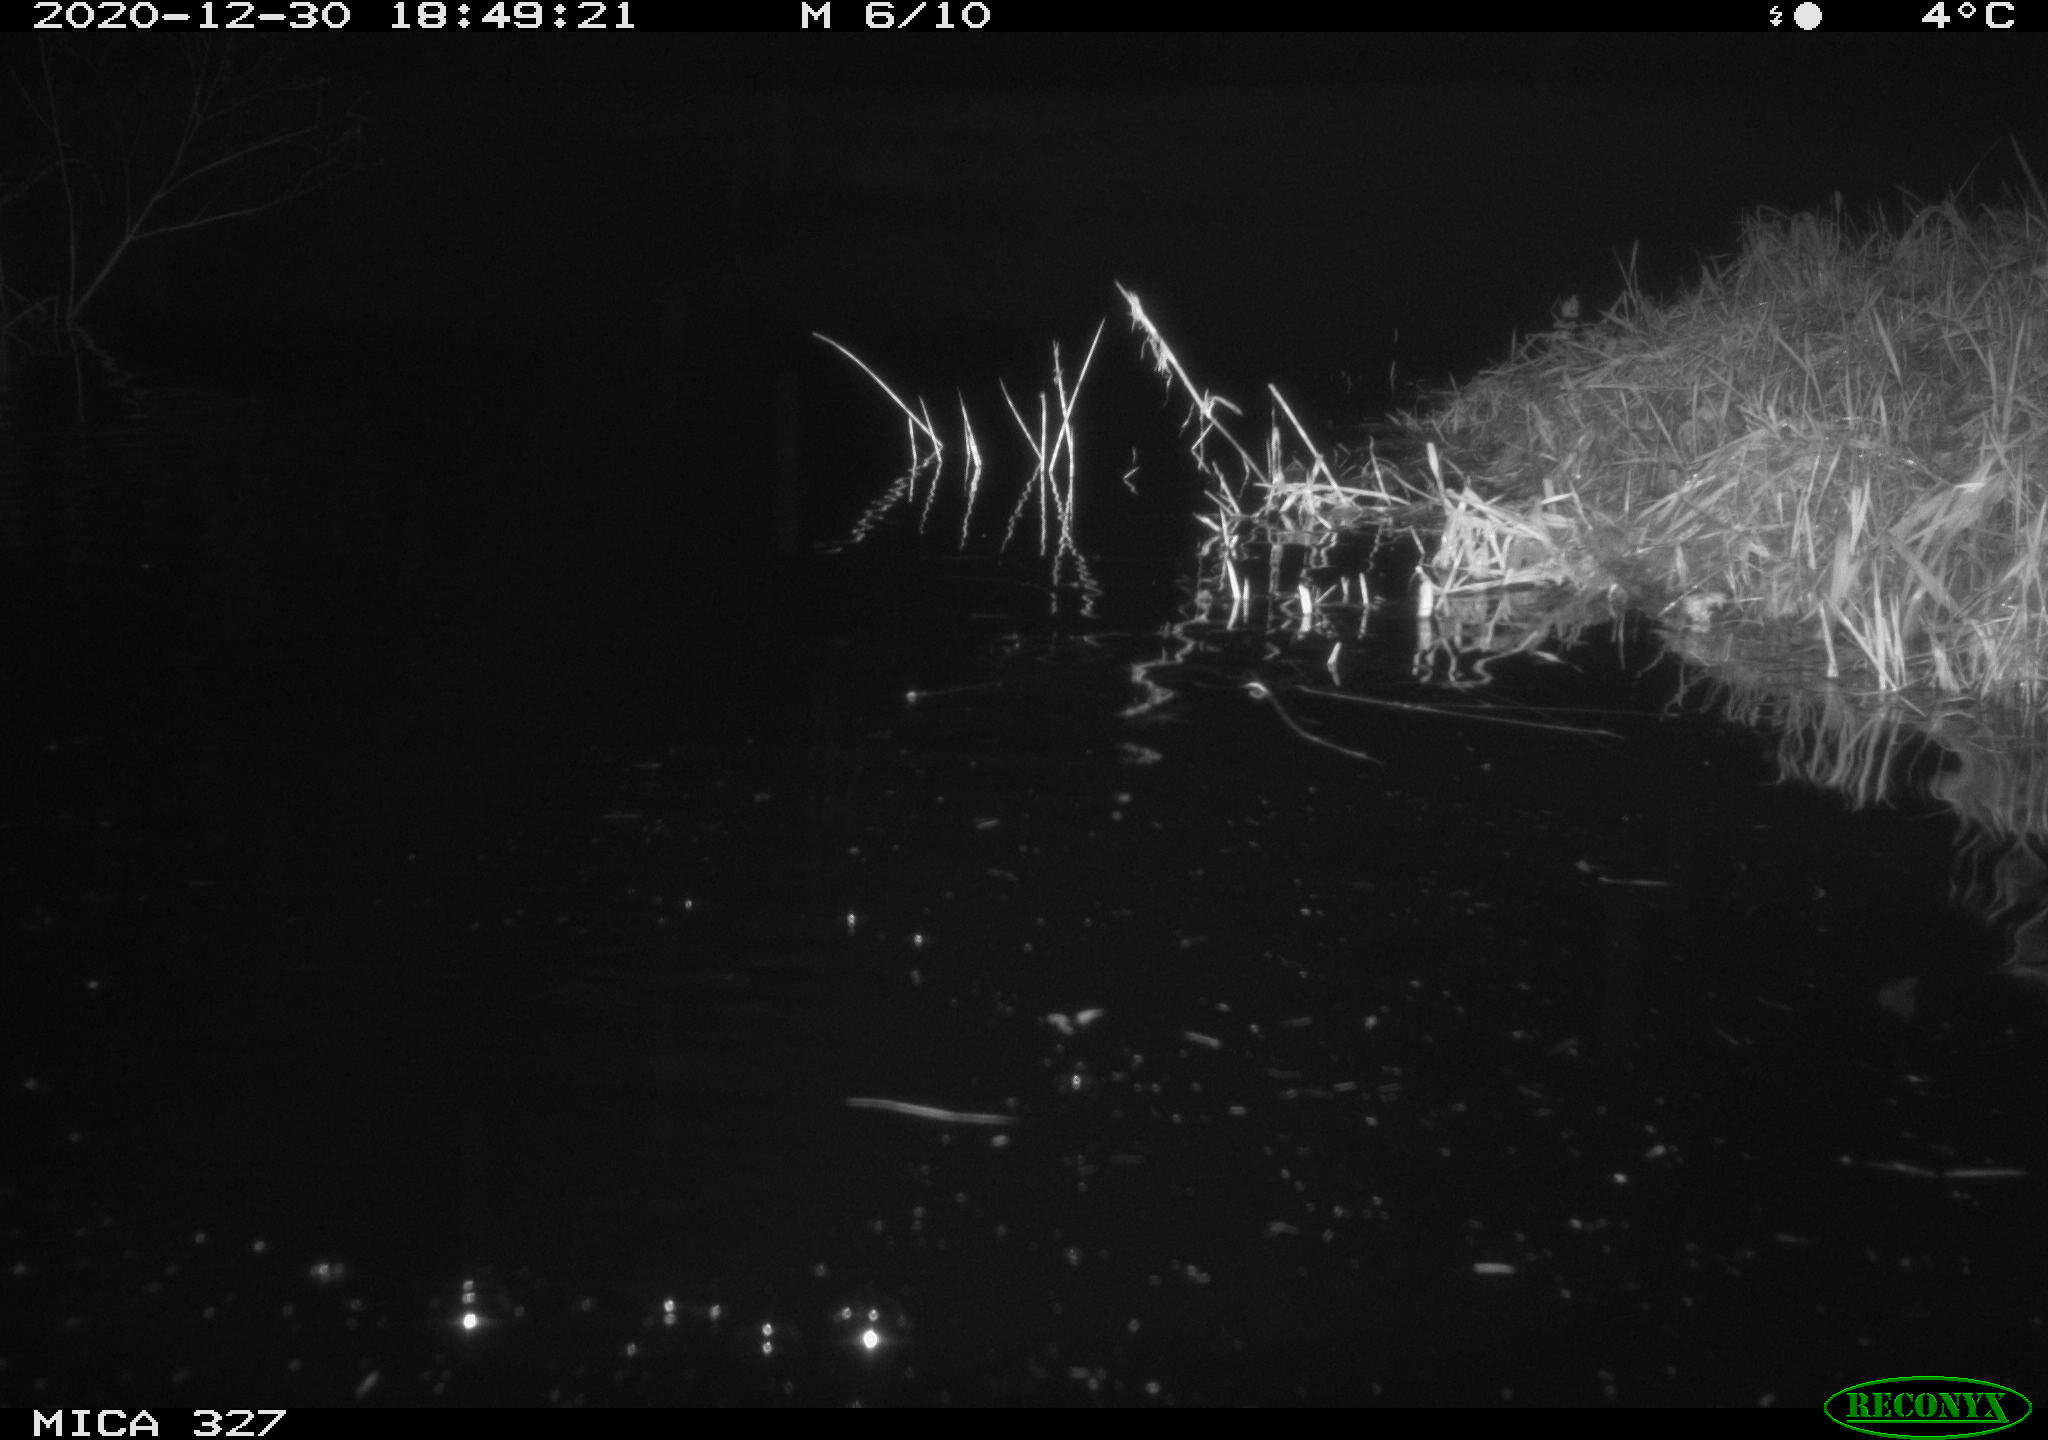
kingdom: Animalia
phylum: Chordata
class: Mammalia
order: Rodentia
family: Cricetidae
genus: Ondatra
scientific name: Ondatra zibethicus
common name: Muskrat
